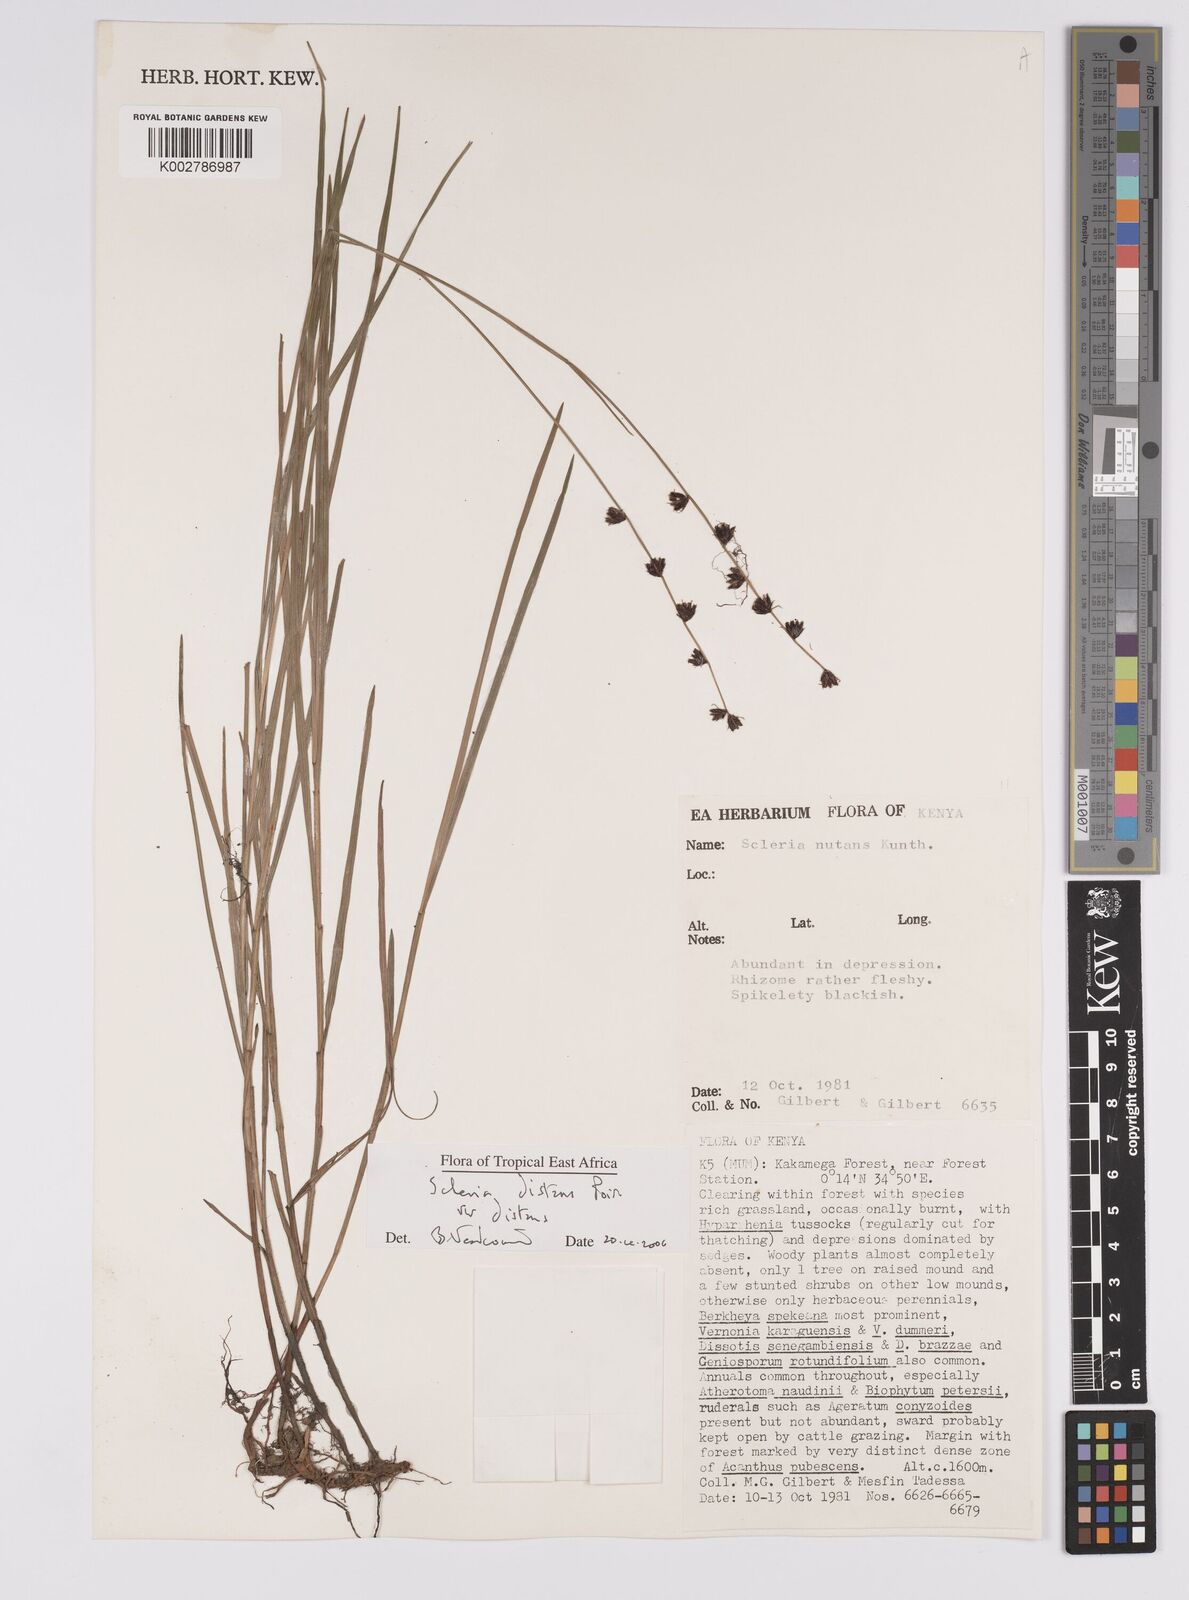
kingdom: Plantae
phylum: Tracheophyta
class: Liliopsida
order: Poales
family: Cyperaceae
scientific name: Cyperaceae
